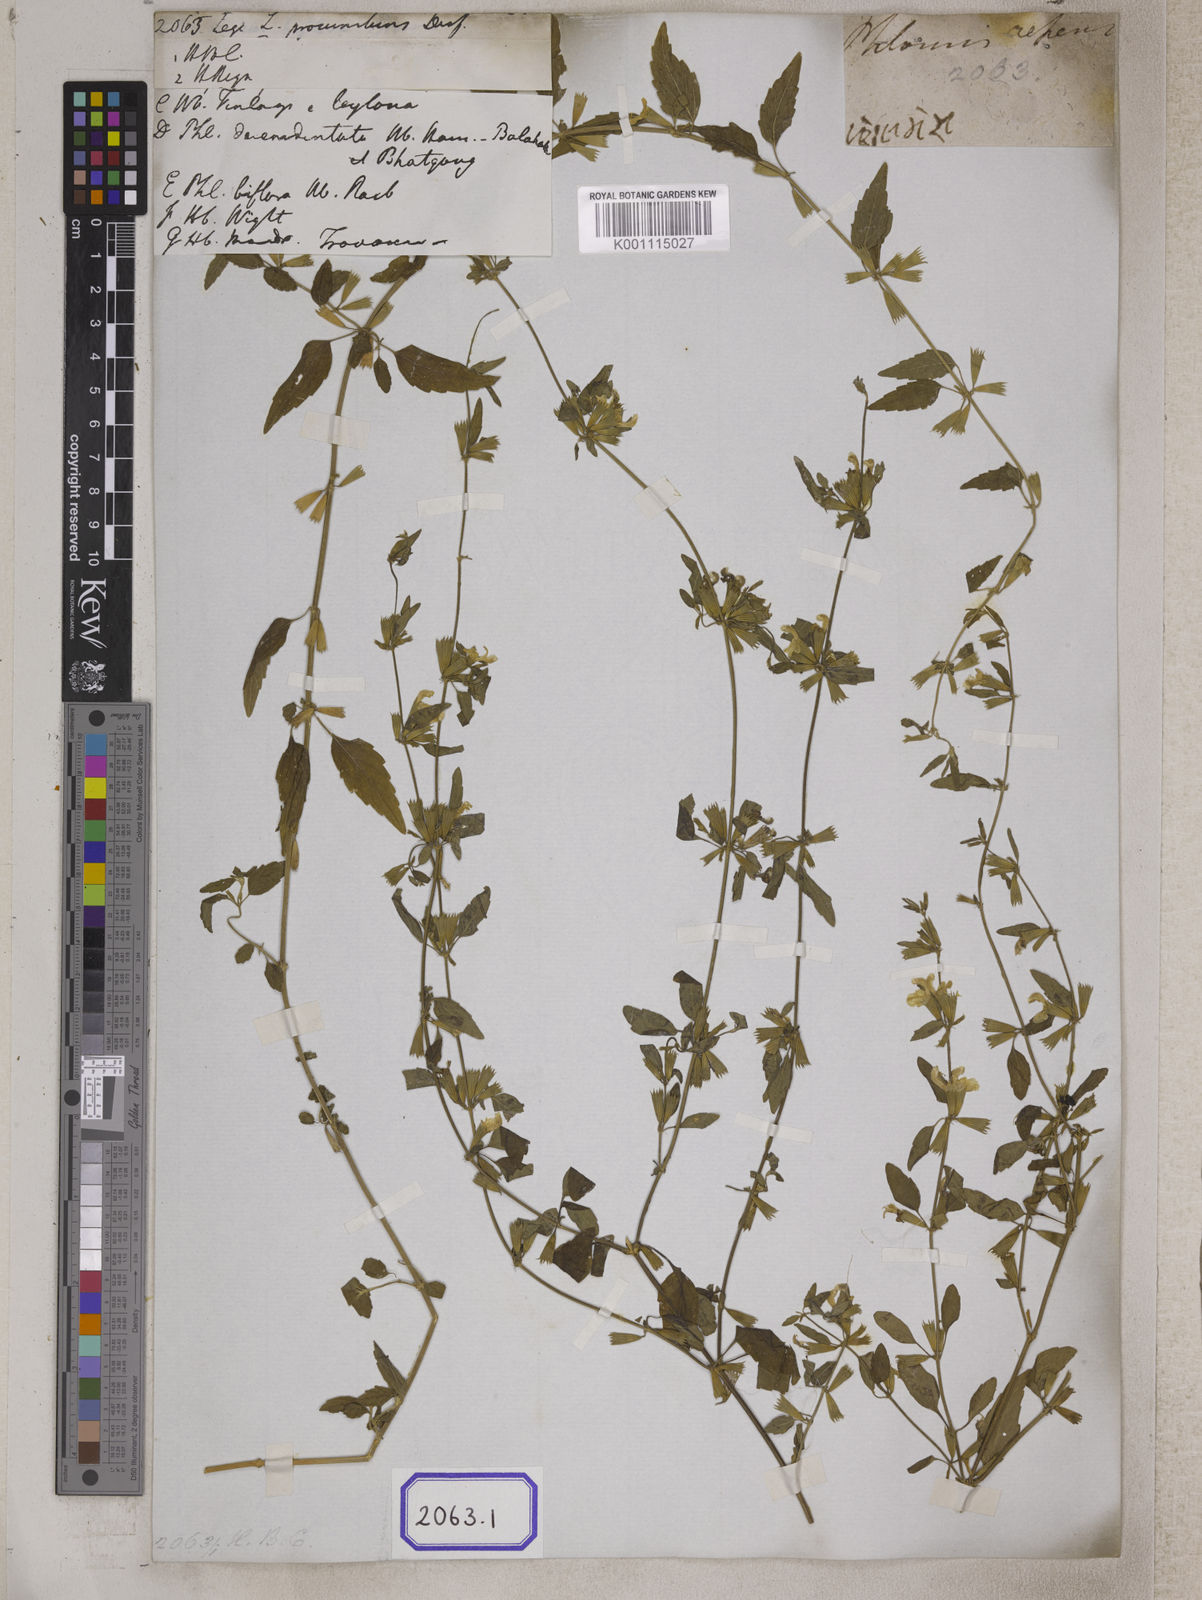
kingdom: Plantae
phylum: Tracheophyta
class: Magnoliopsida
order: Lamiales
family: Lamiaceae
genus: Leucas
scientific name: Leucas
